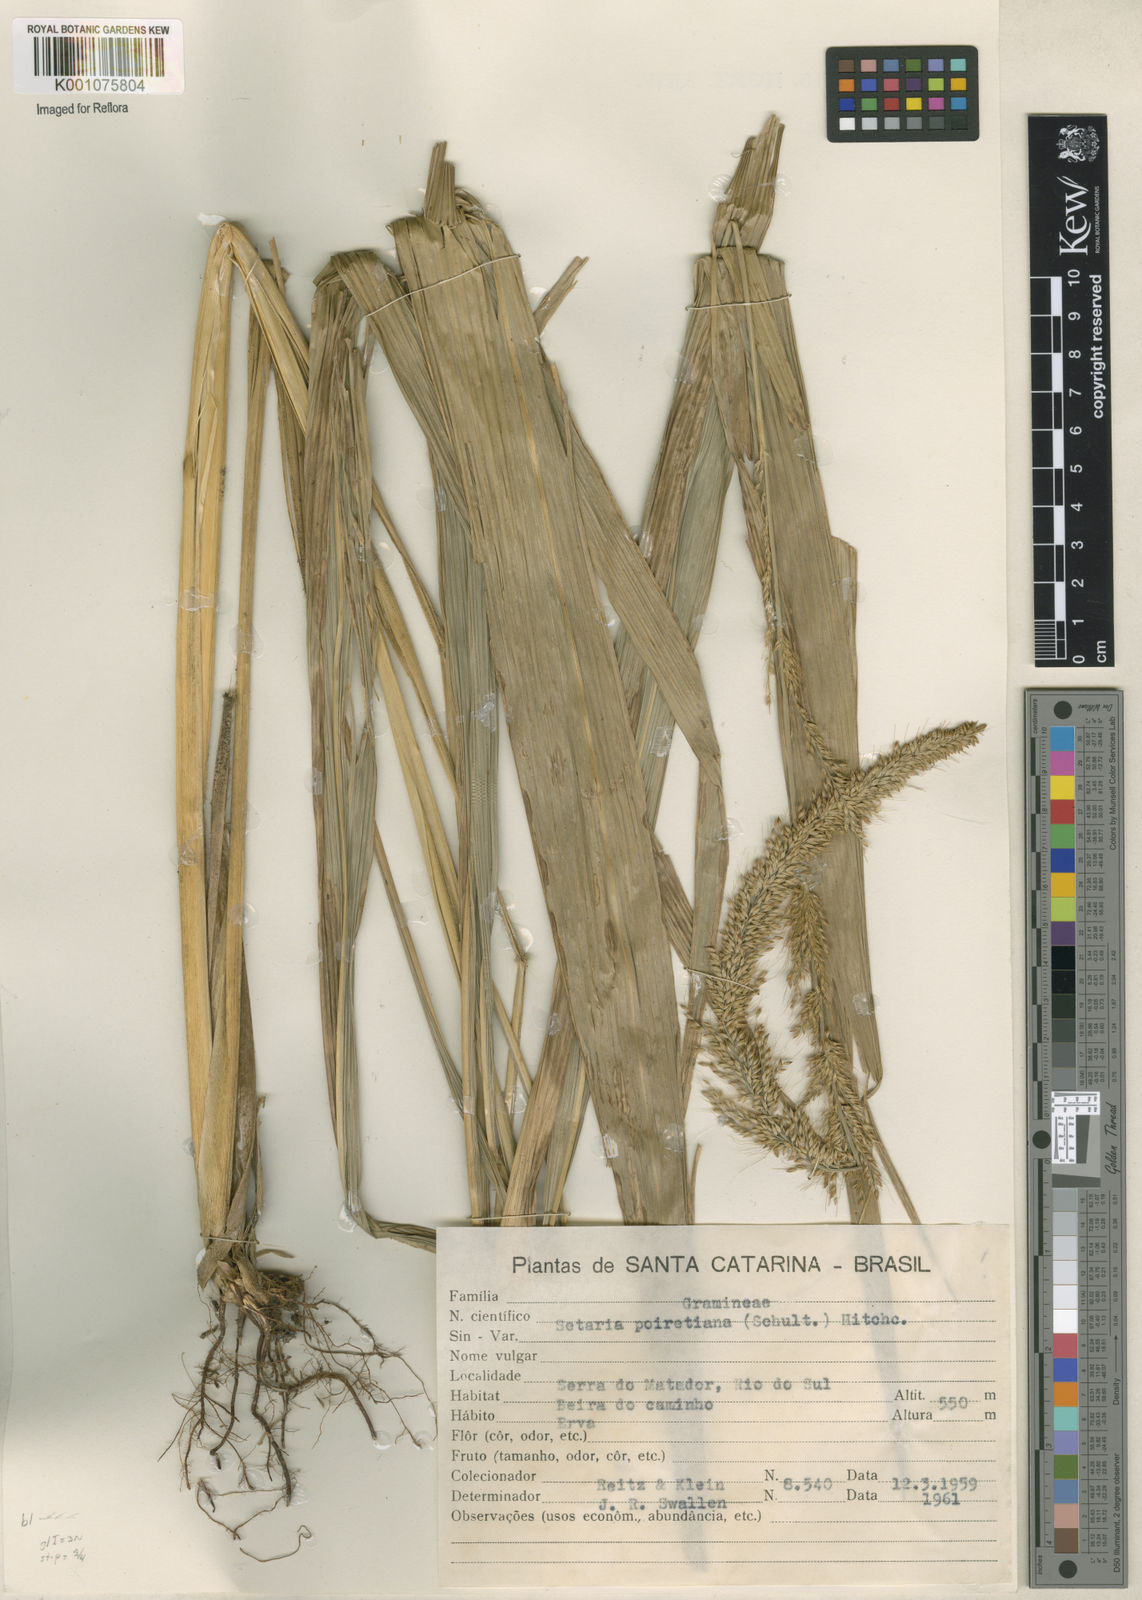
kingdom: Plantae
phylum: Tracheophyta
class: Liliopsida
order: Poales
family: Poaceae
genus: Setaria
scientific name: Setaria megaphylla
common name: Bigleaf bristlegrass
